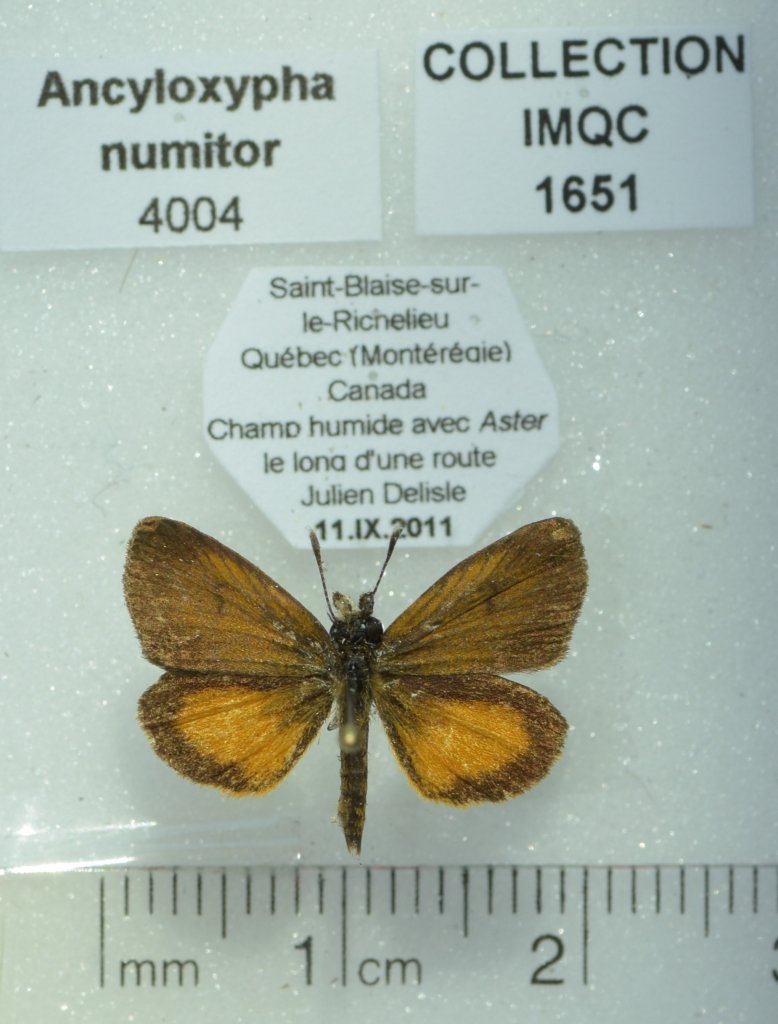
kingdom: Animalia
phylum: Arthropoda
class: Insecta
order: Lepidoptera
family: Hesperiidae
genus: Ancyloxypha
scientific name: Ancyloxypha numitor
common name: Least Skipper
